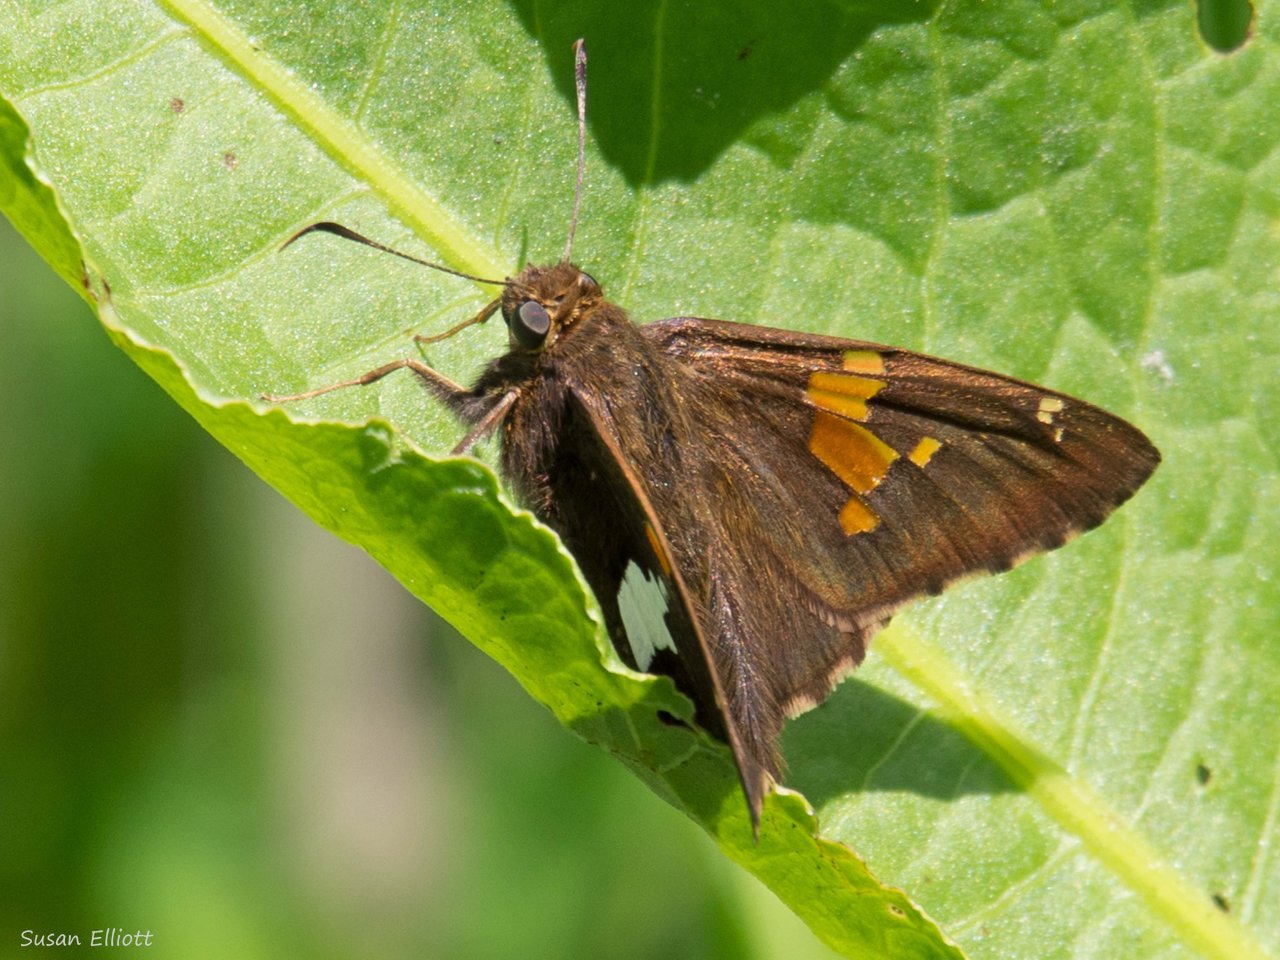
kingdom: Animalia
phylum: Arthropoda
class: Insecta
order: Lepidoptera
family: Hesperiidae
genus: Epargyreus
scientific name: Epargyreus clarus
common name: Silver-spotted Skipper
